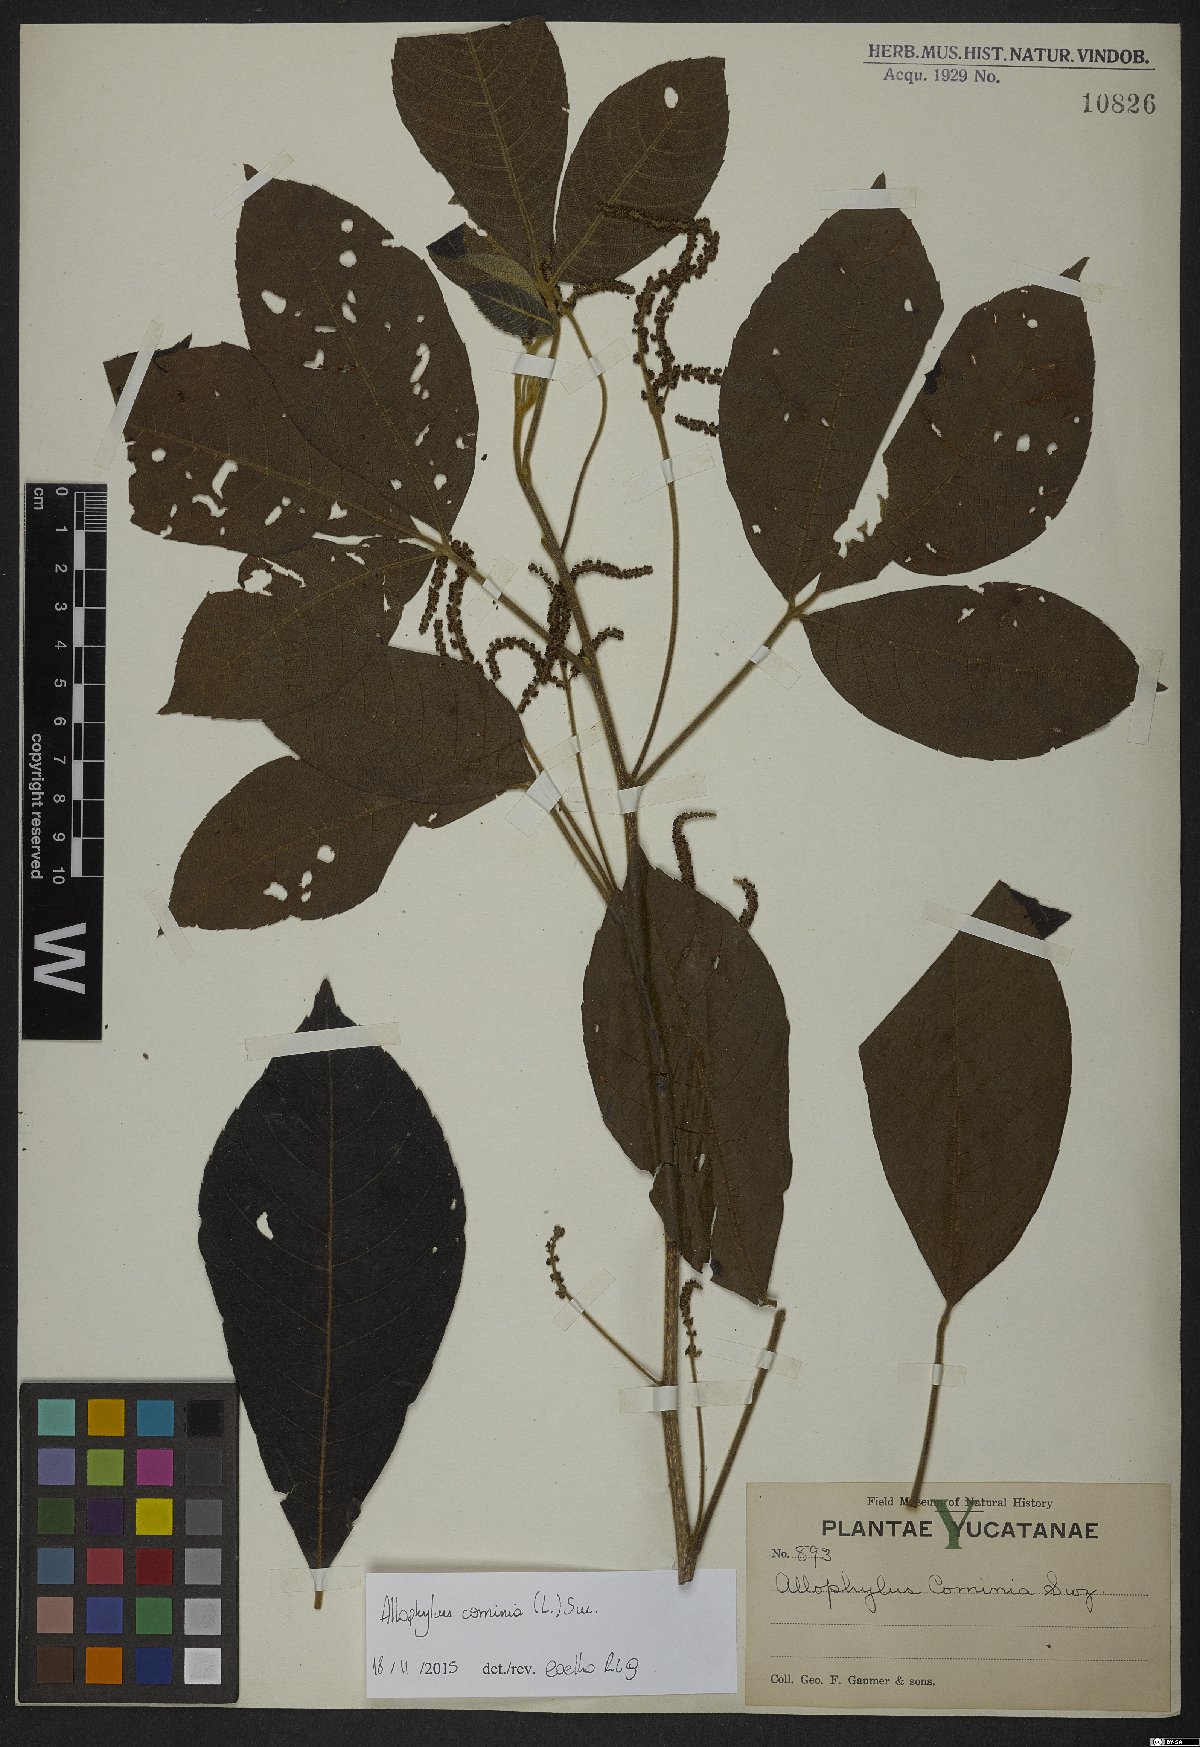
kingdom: Plantae
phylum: Tracheophyta
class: Magnoliopsida
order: Sapindales
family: Sapindaceae
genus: Allophylus
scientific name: Allophylus cominia
